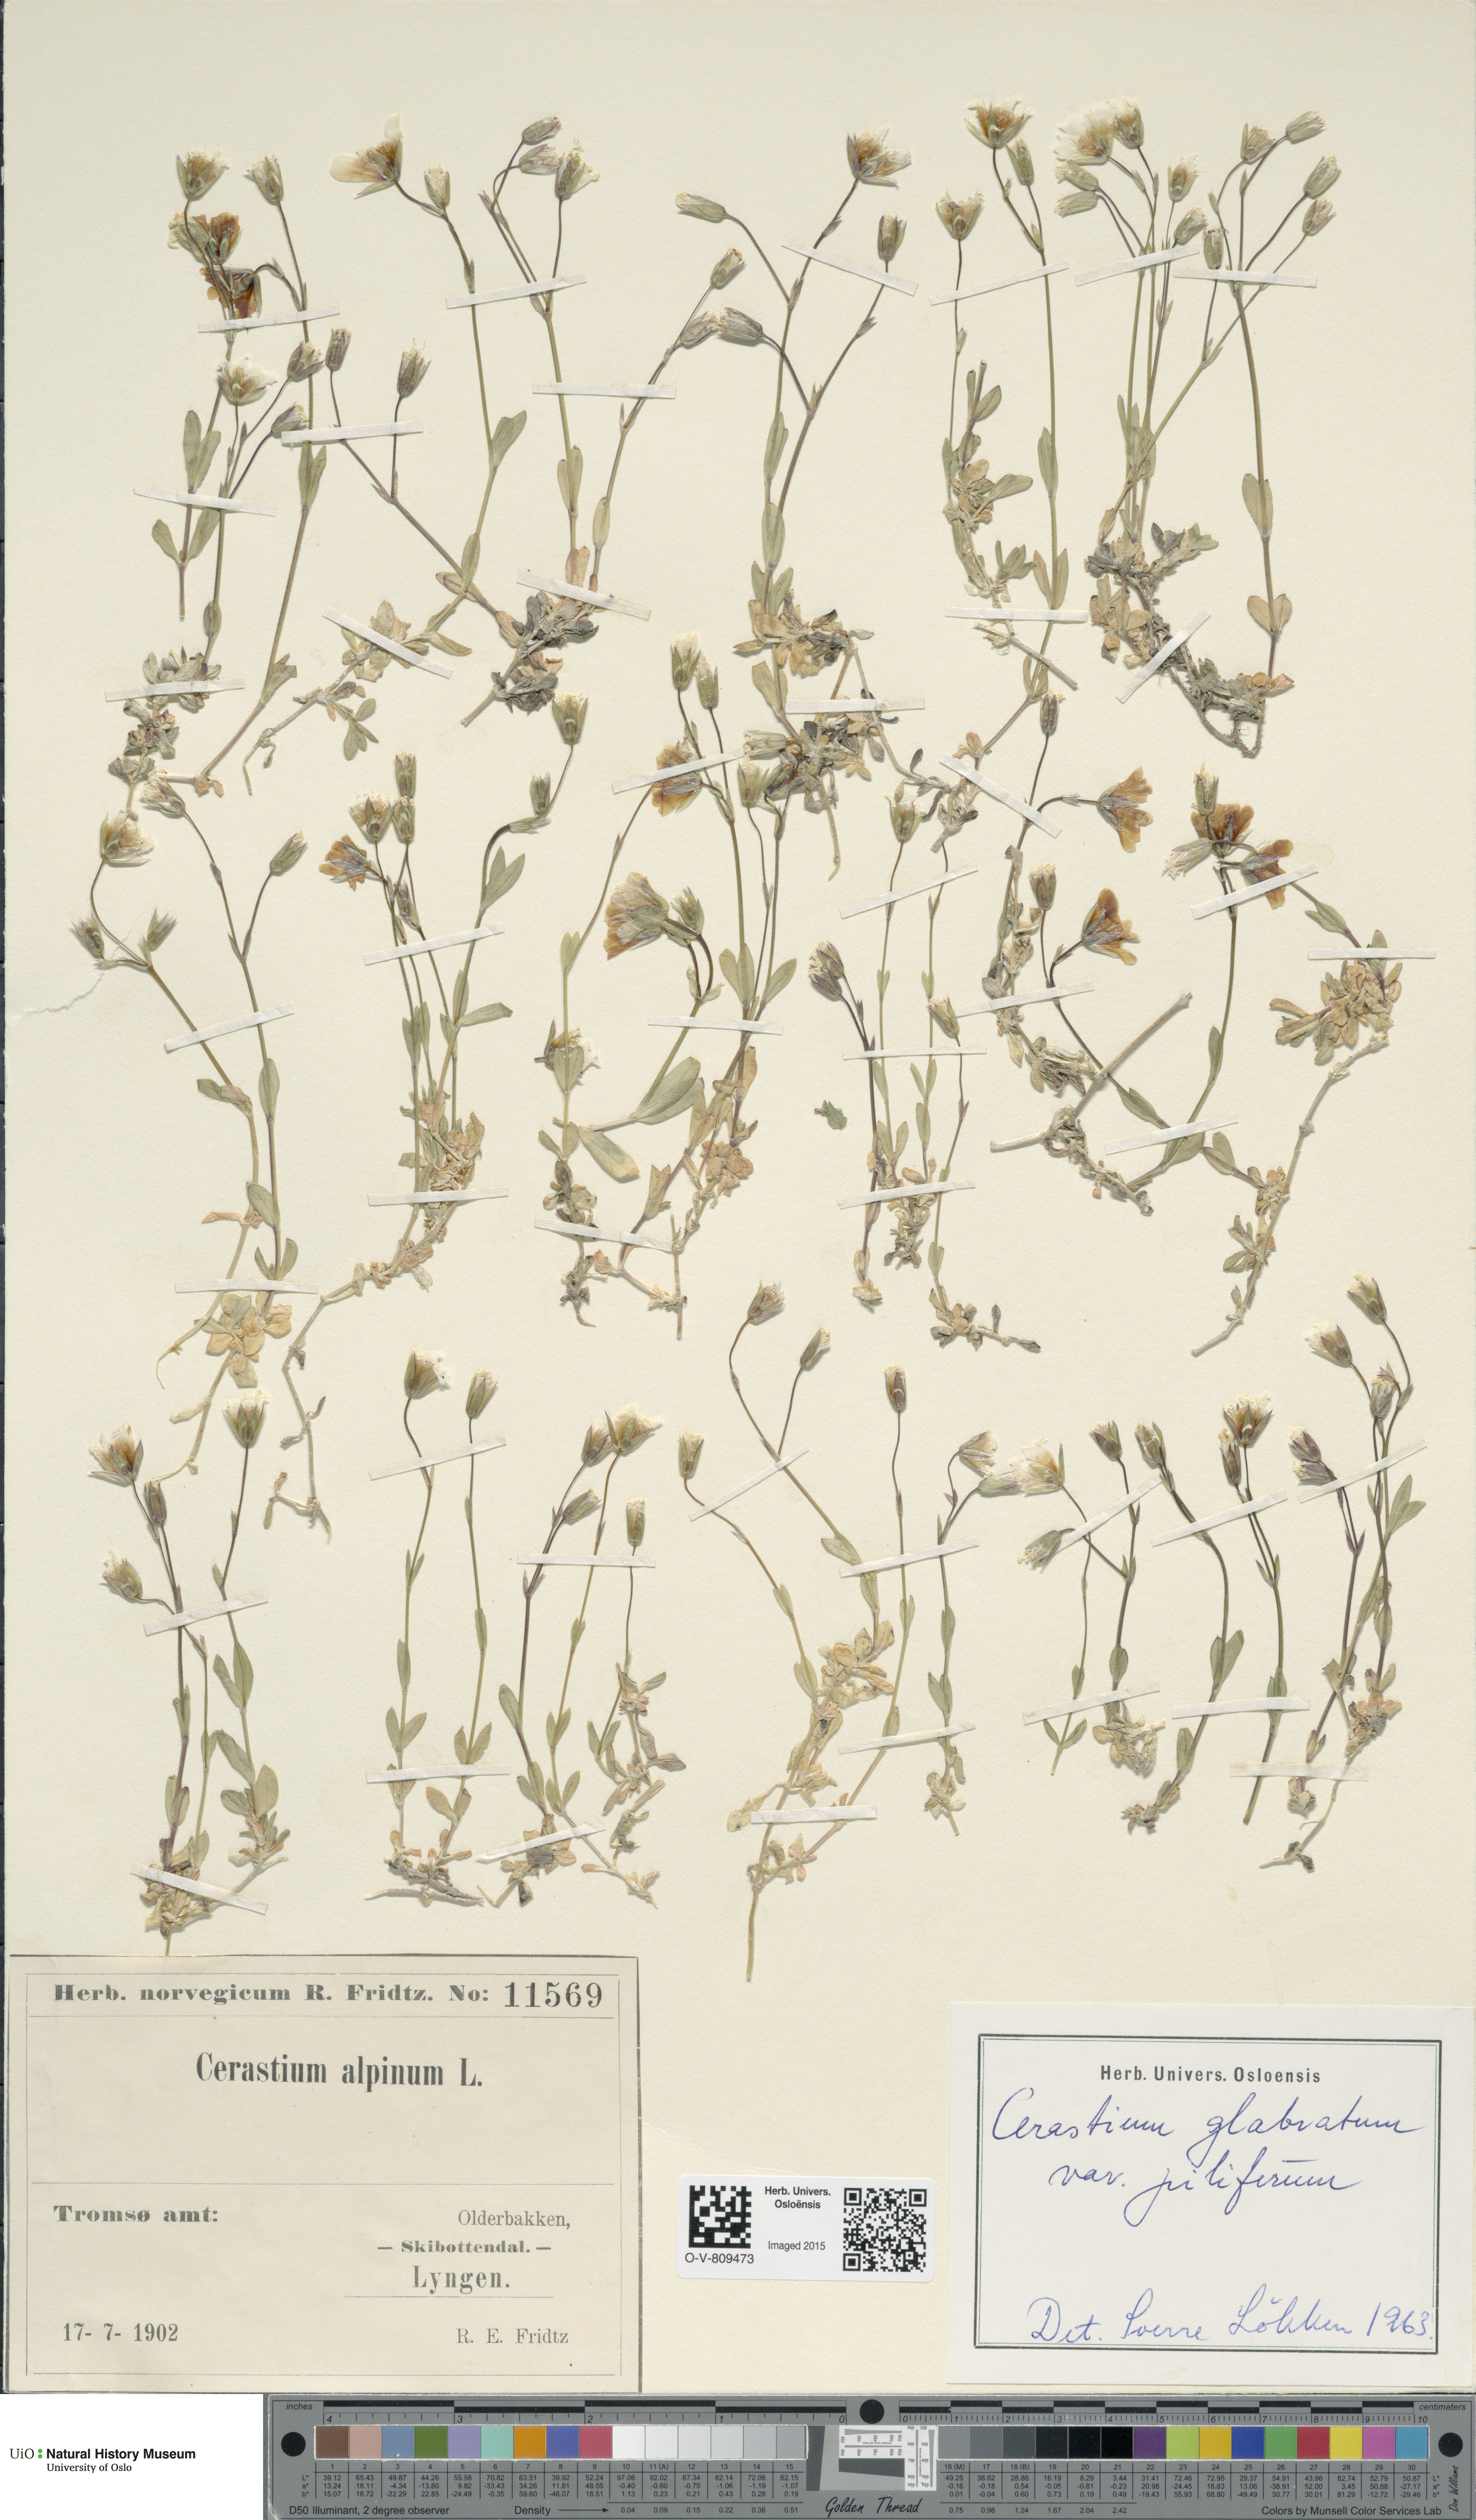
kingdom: Plantae
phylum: Tracheophyta
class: Magnoliopsida
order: Caryophyllales
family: Caryophyllaceae
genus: Cerastium
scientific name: Cerastium alpinum
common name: Alpine mouse-ear
